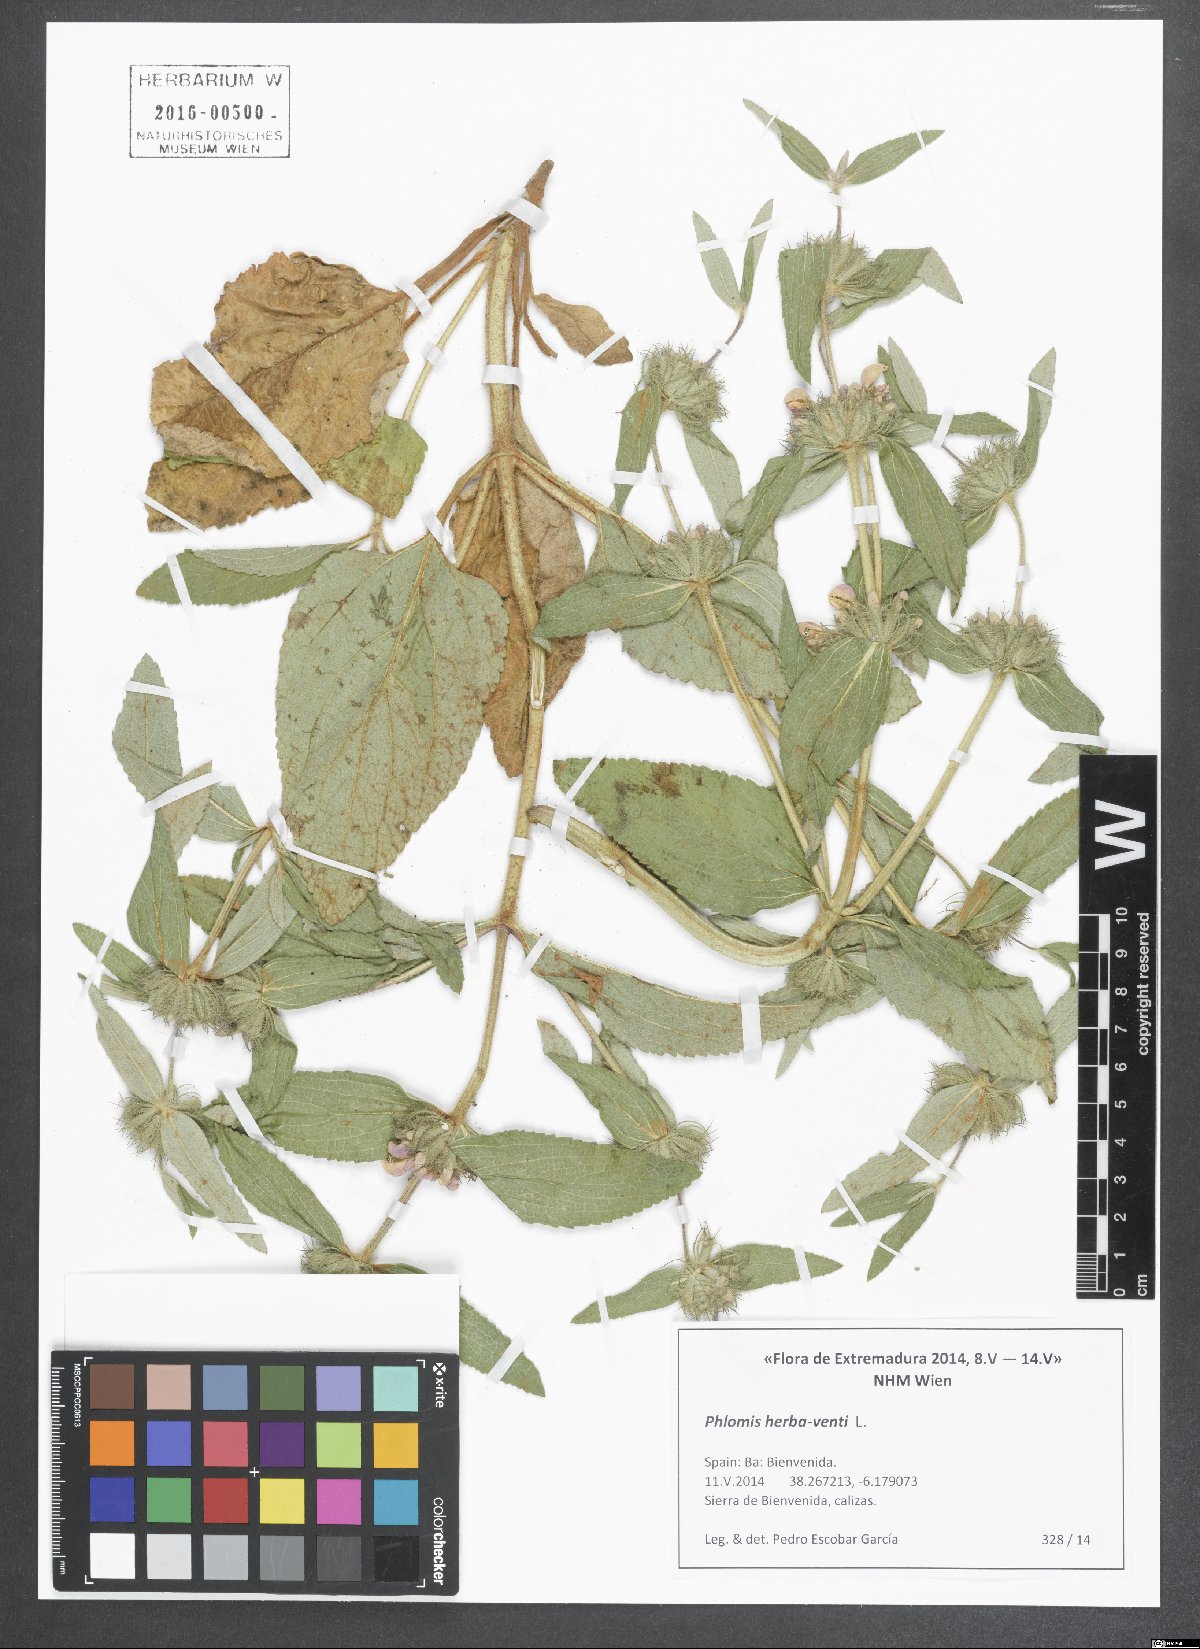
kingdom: Plantae
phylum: Tracheophyta
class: Magnoliopsida
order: Lamiales
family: Lamiaceae
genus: Phlomis
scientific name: Phlomis herba-venti
